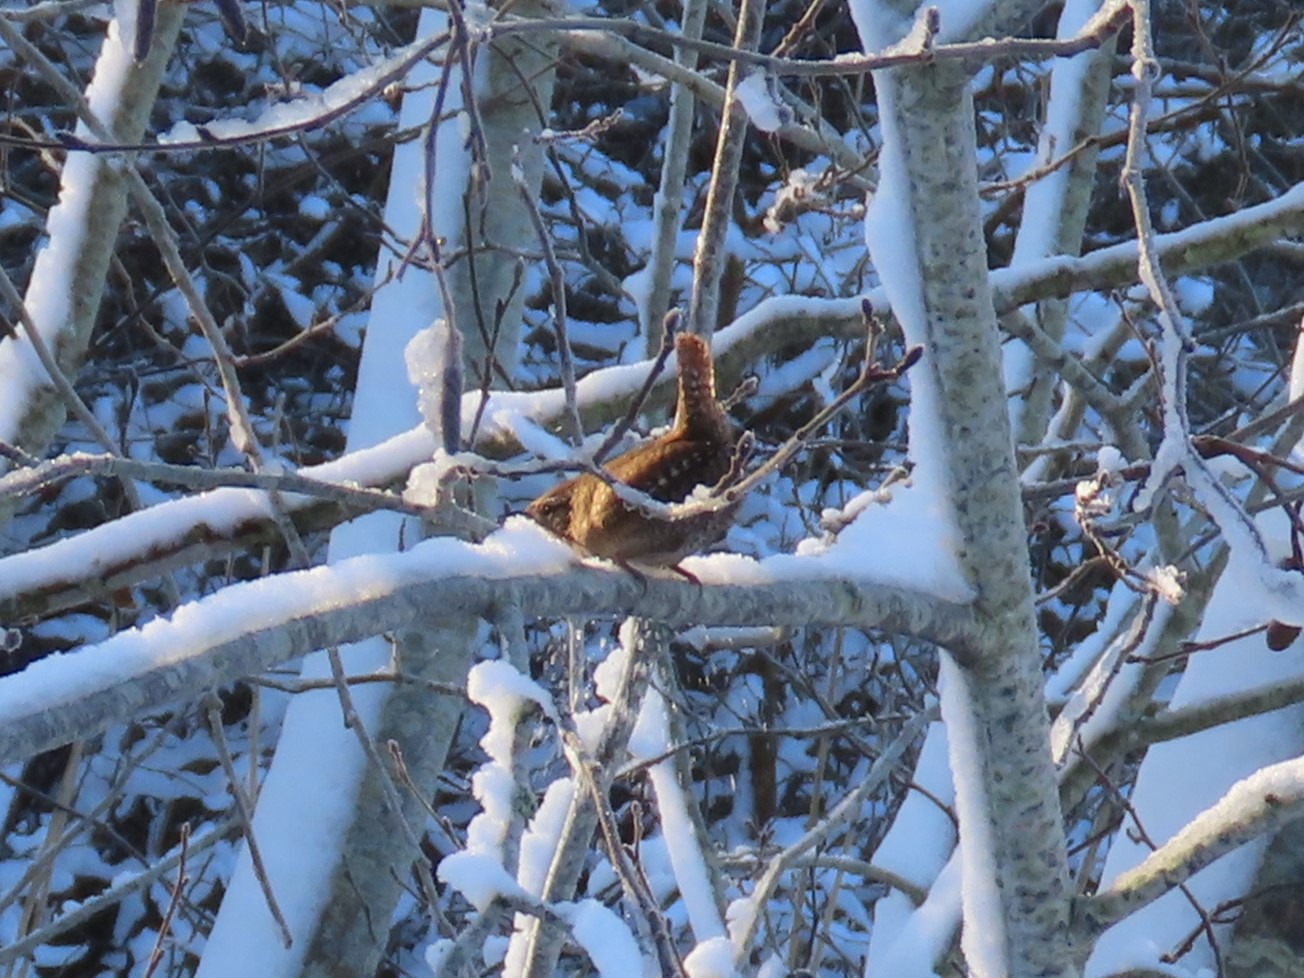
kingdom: Animalia
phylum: Chordata
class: Aves
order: Passeriformes
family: Troglodytidae
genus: Troglodytes
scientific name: Troglodytes troglodytes
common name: Gærdesmutte
